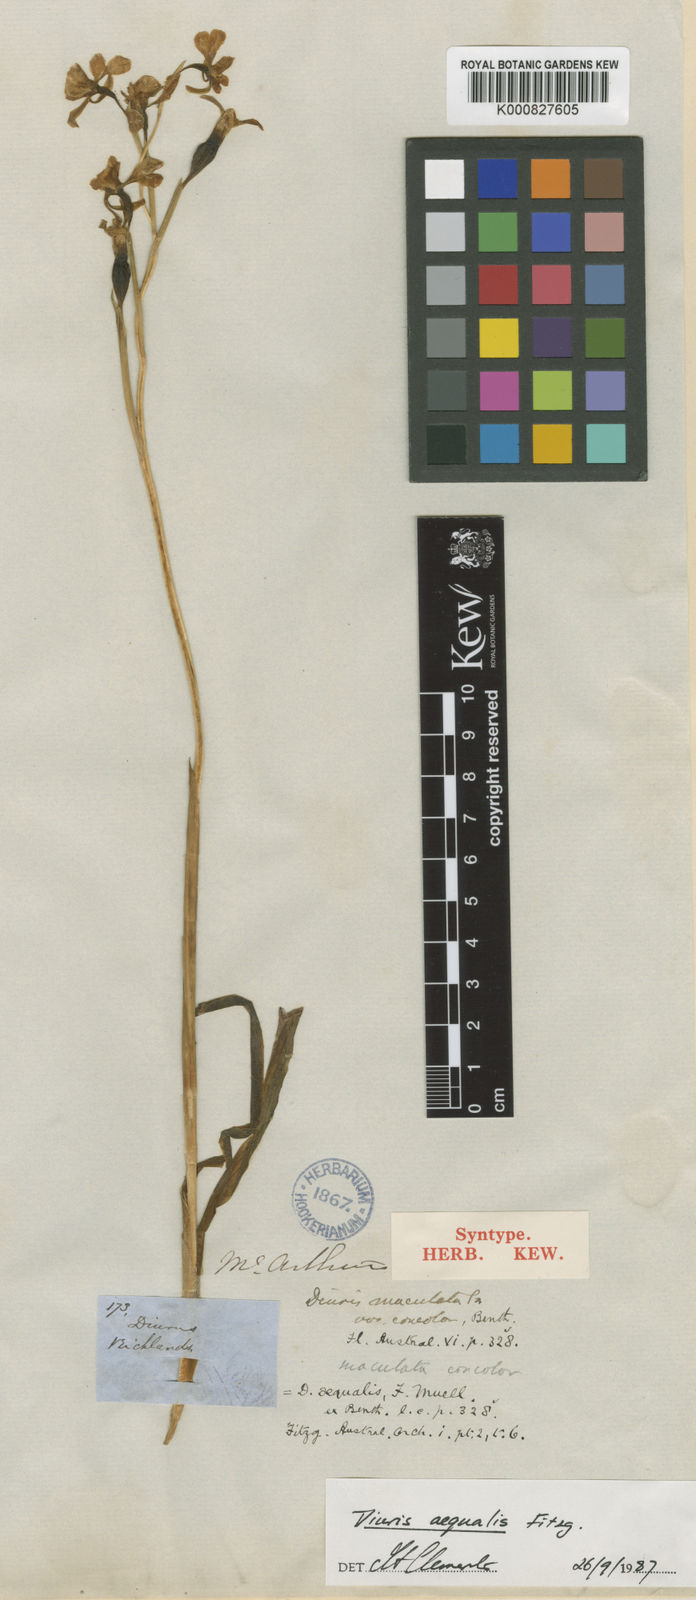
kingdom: Plantae
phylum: Tracheophyta
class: Liliopsida
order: Asparagales
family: Orchidaceae
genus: Diuris
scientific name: Diuris aequalis
